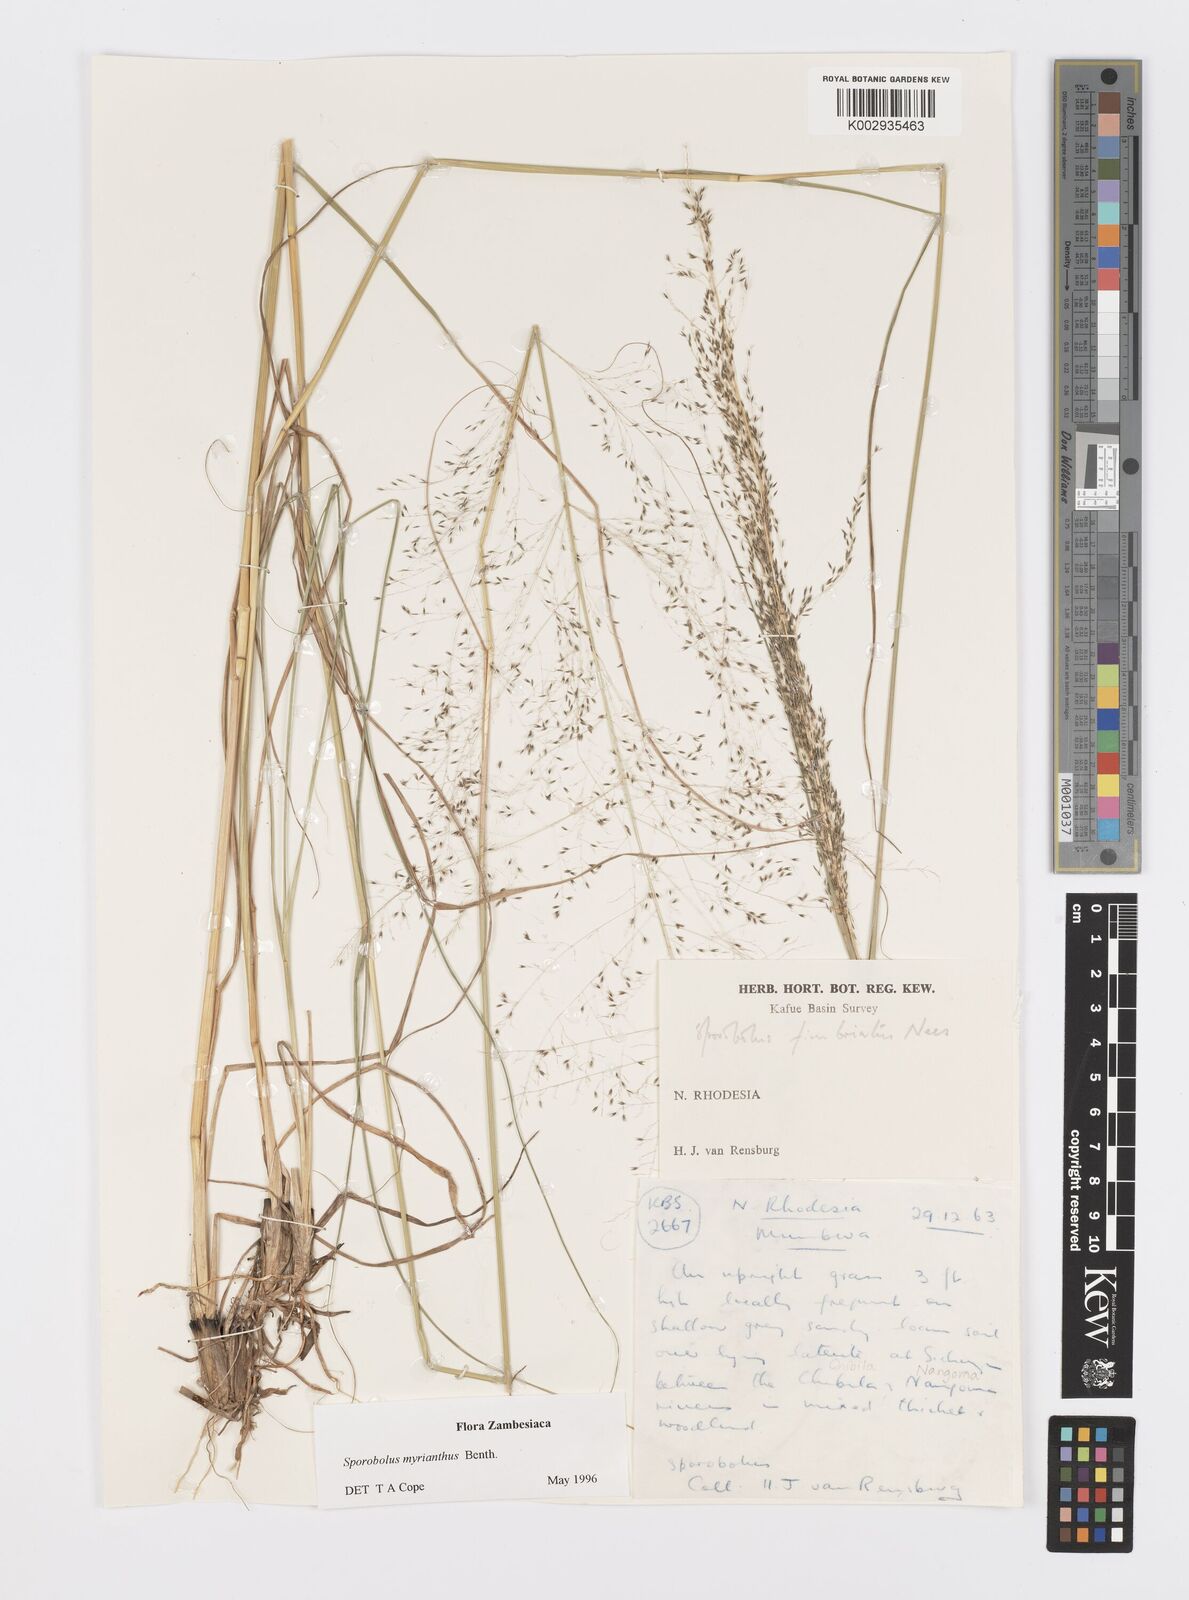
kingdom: Plantae
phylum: Tracheophyta
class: Liliopsida
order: Poales
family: Poaceae
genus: Sporobolus
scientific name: Sporobolus myrianthus
